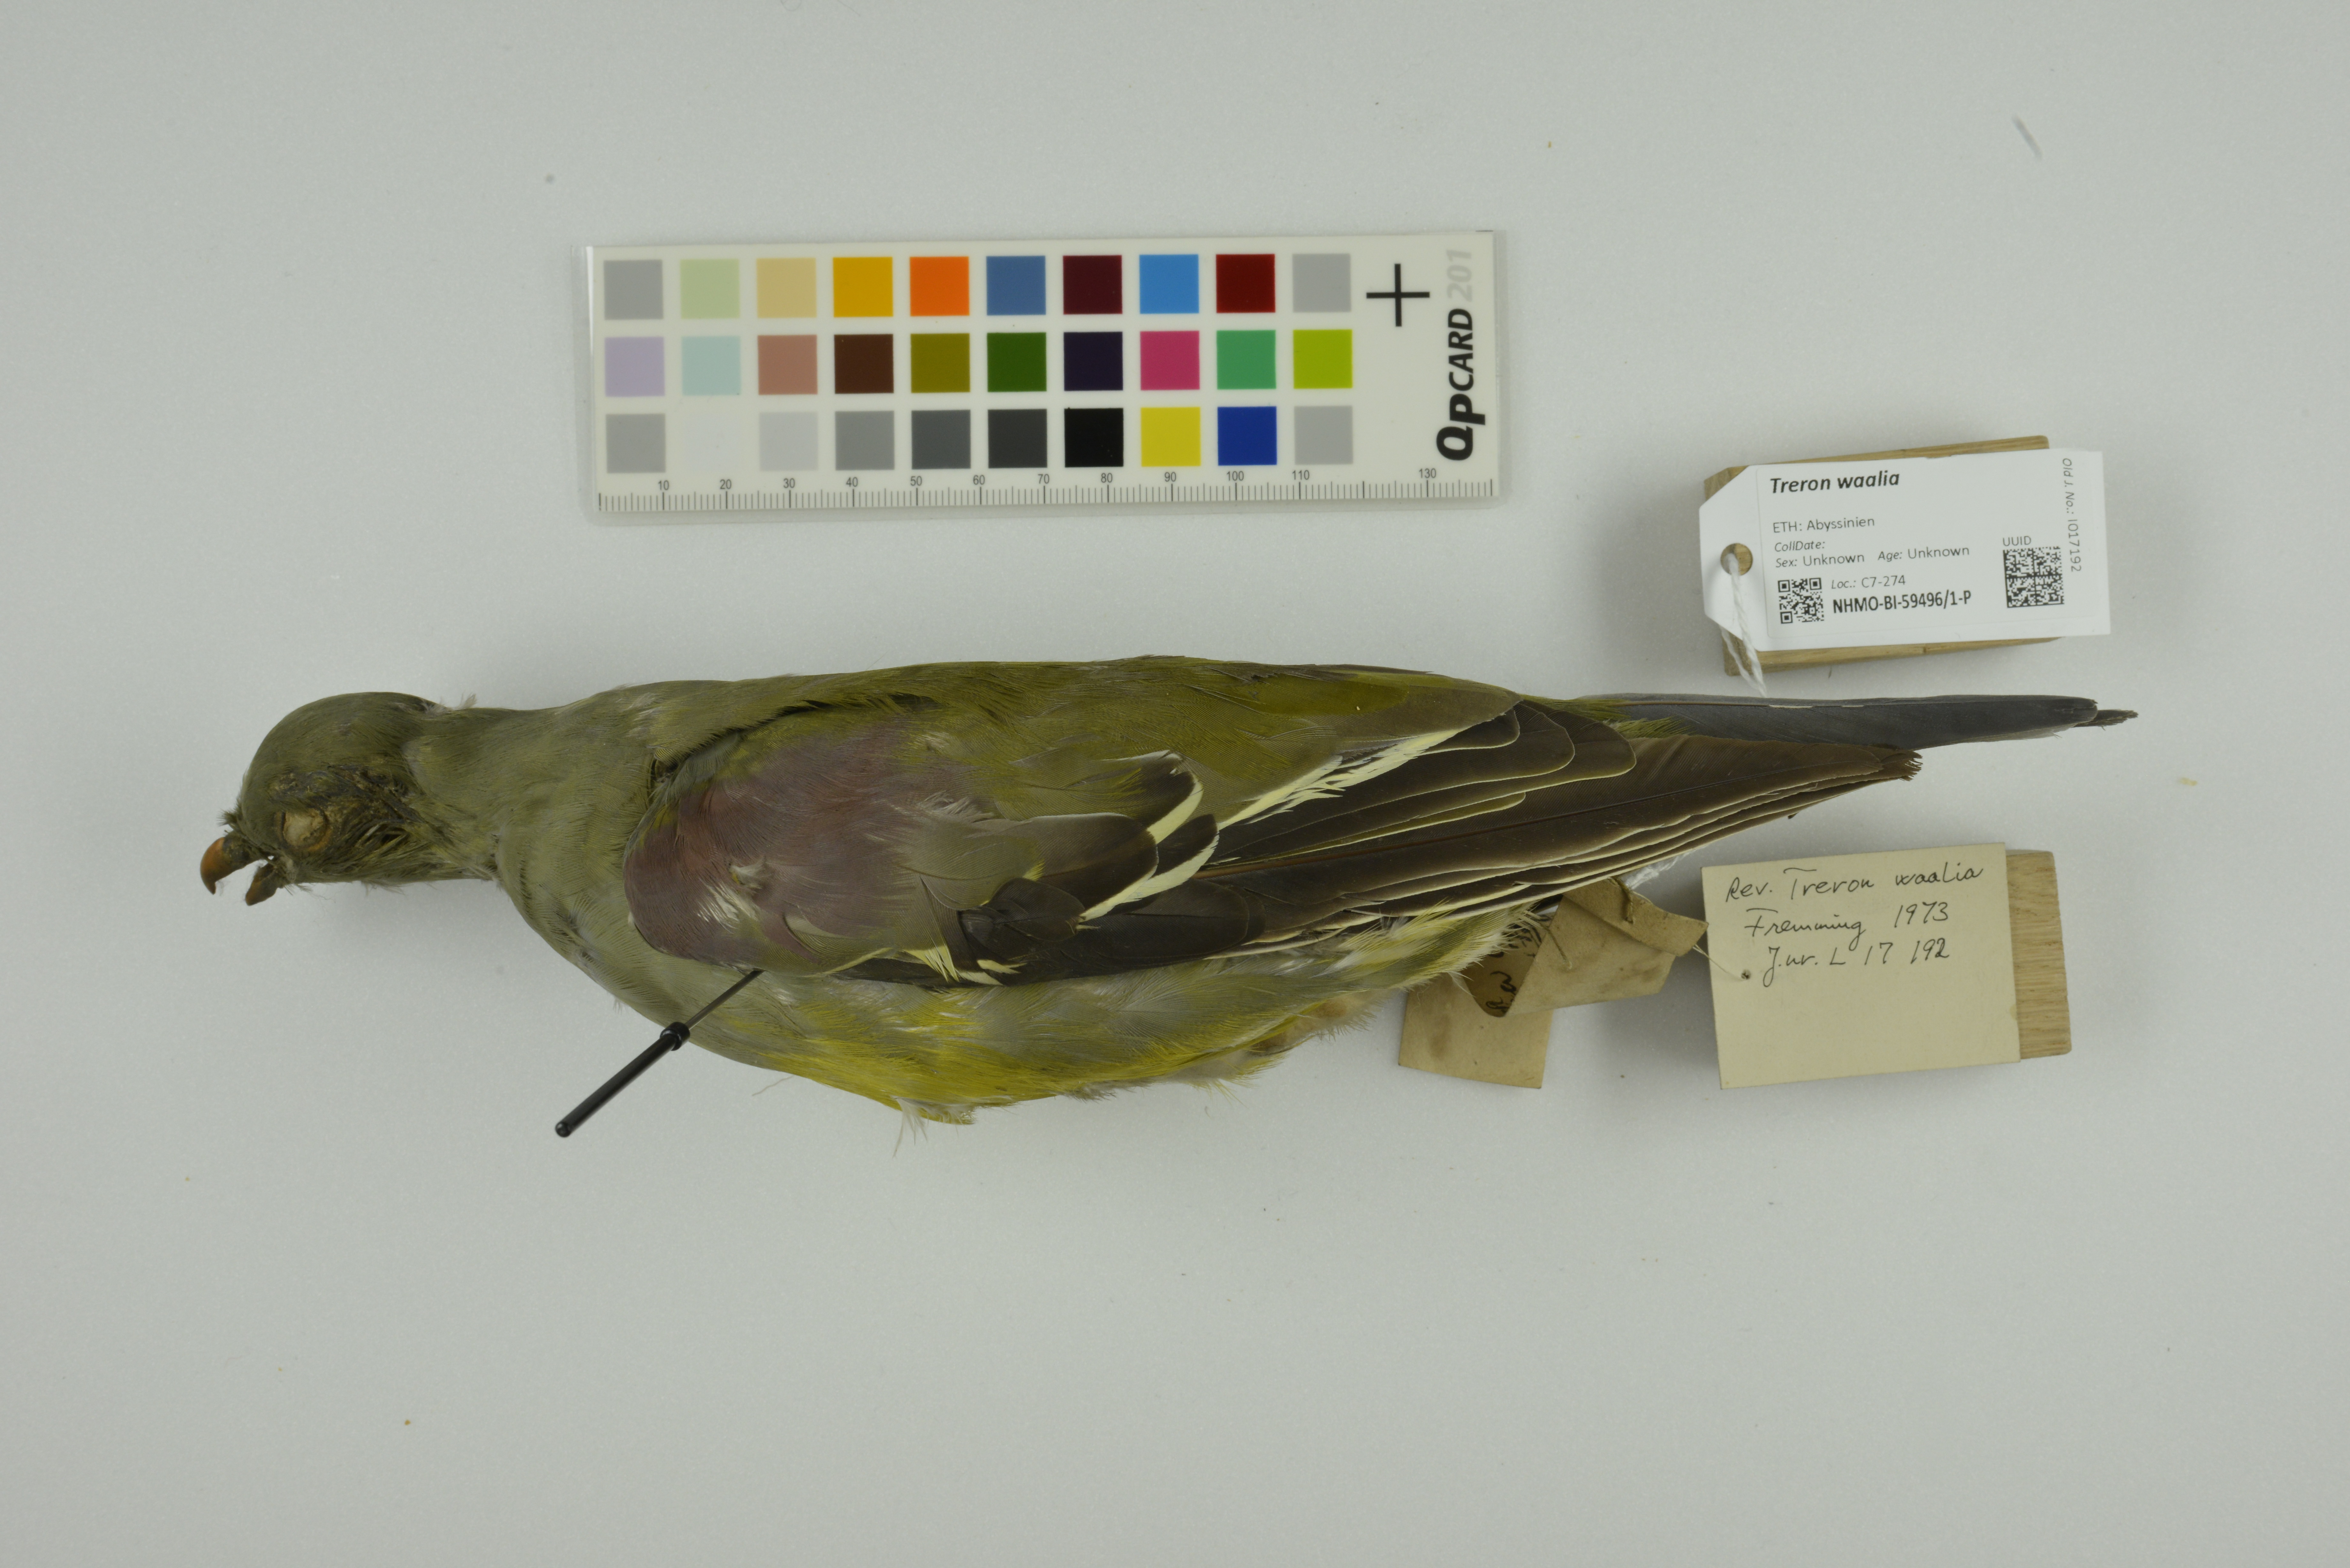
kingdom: Animalia
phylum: Chordata
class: Aves
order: Columbiformes
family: Columbidae
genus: Treron
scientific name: Treron waalia
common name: Bruce's green pigeon
